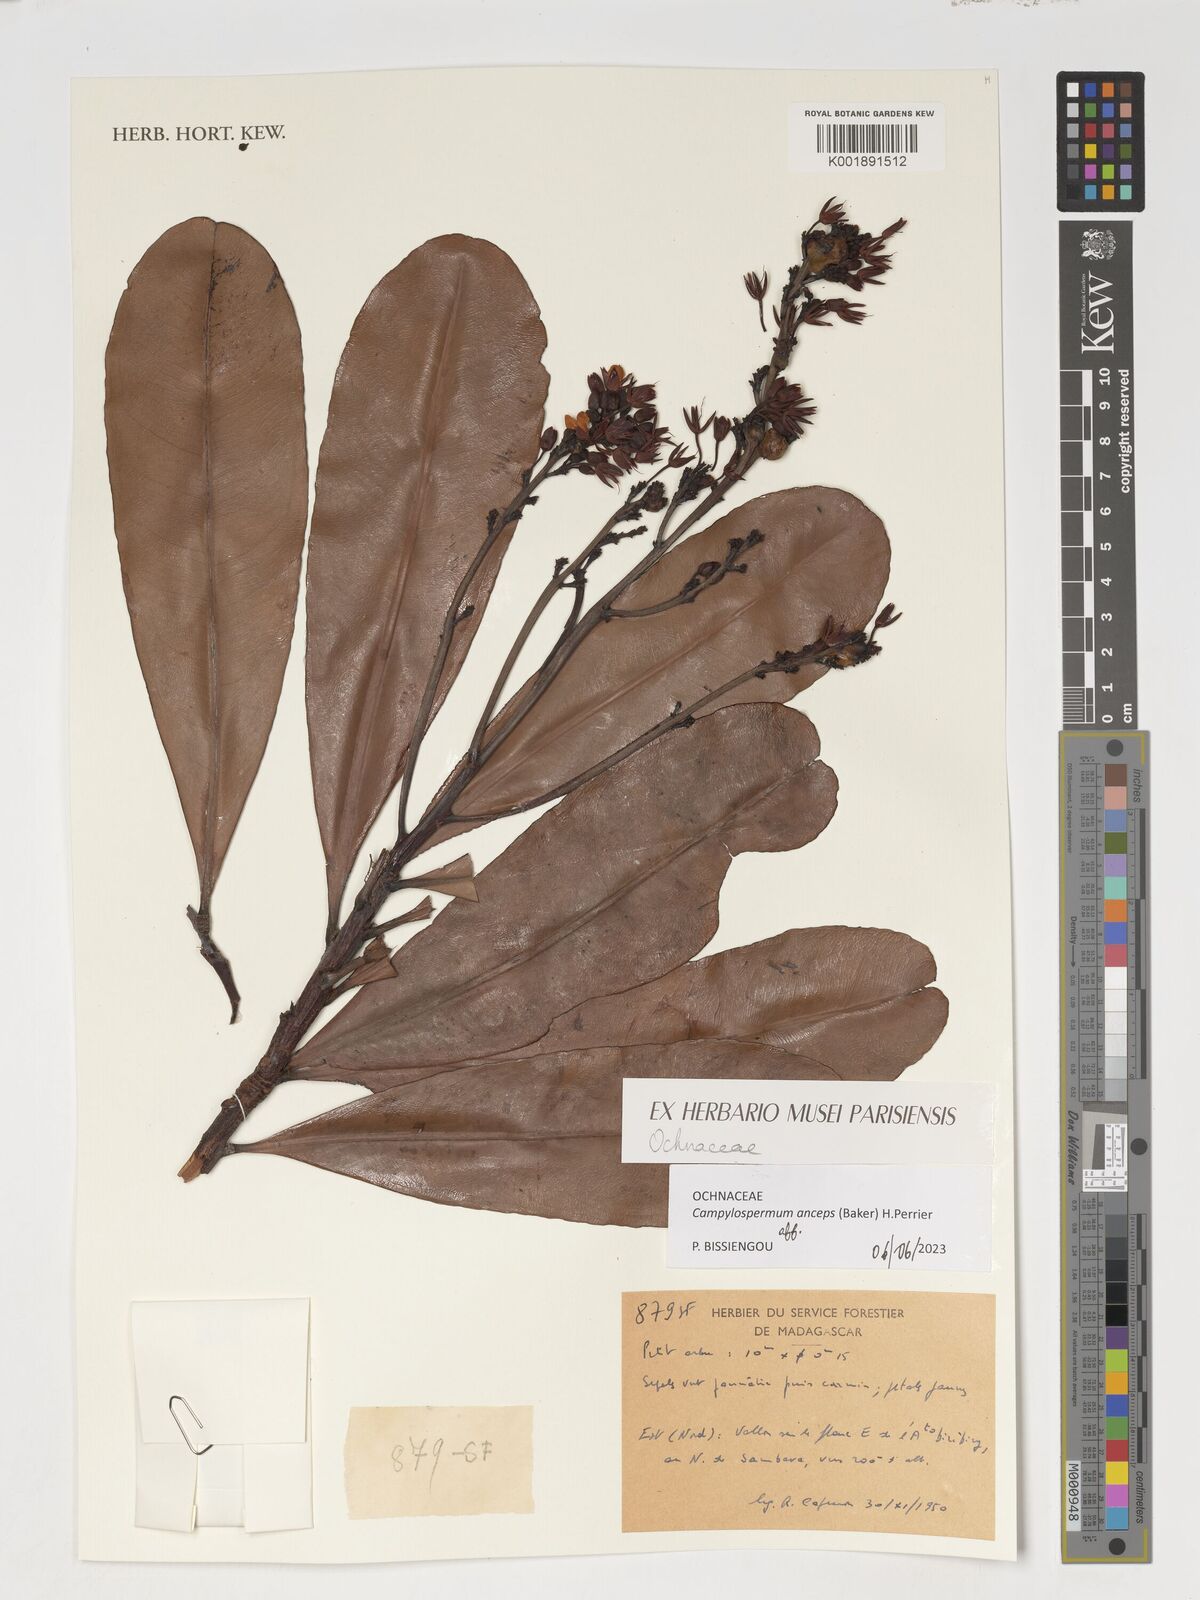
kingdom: Plantae
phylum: Tracheophyta
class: Magnoliopsida
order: Malpighiales
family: Ochnaceae
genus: Campylospermum
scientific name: Campylospermum anceps
